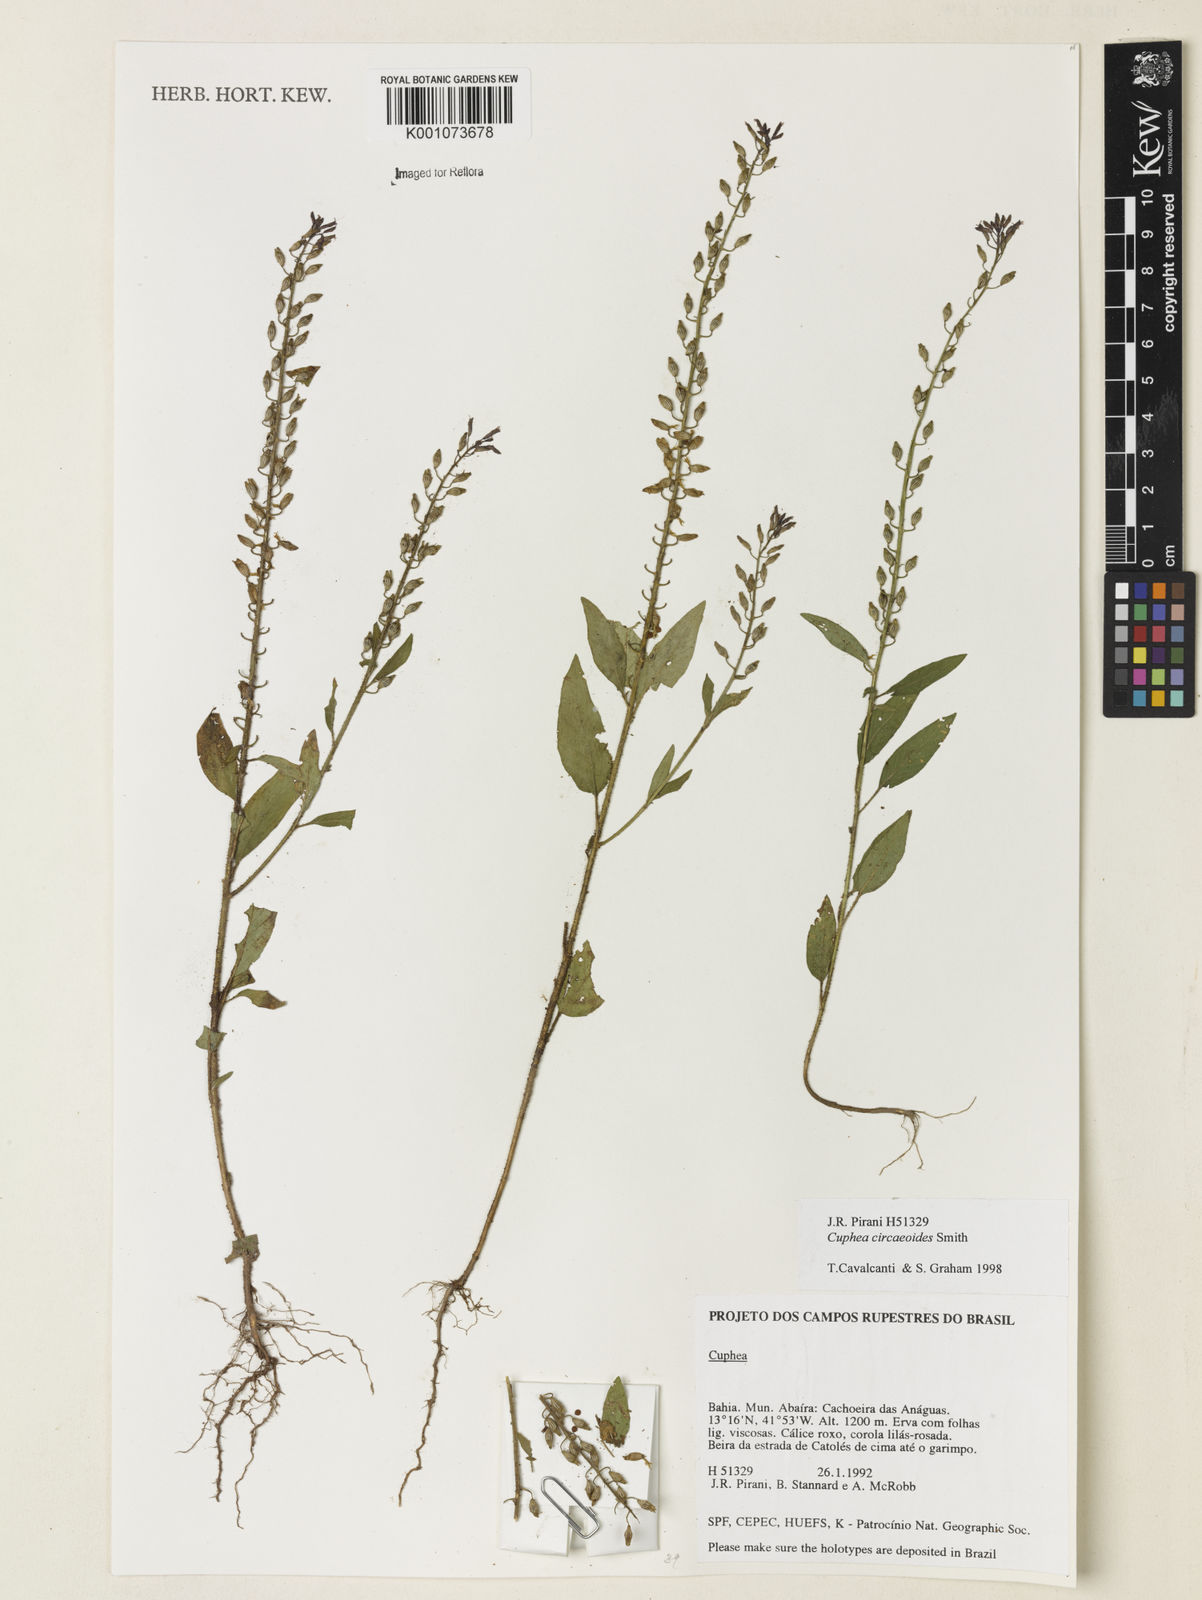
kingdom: Plantae
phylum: Tracheophyta
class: Magnoliopsida
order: Myrtales
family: Lythraceae
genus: Cuphea
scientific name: Cuphea circaeoides
